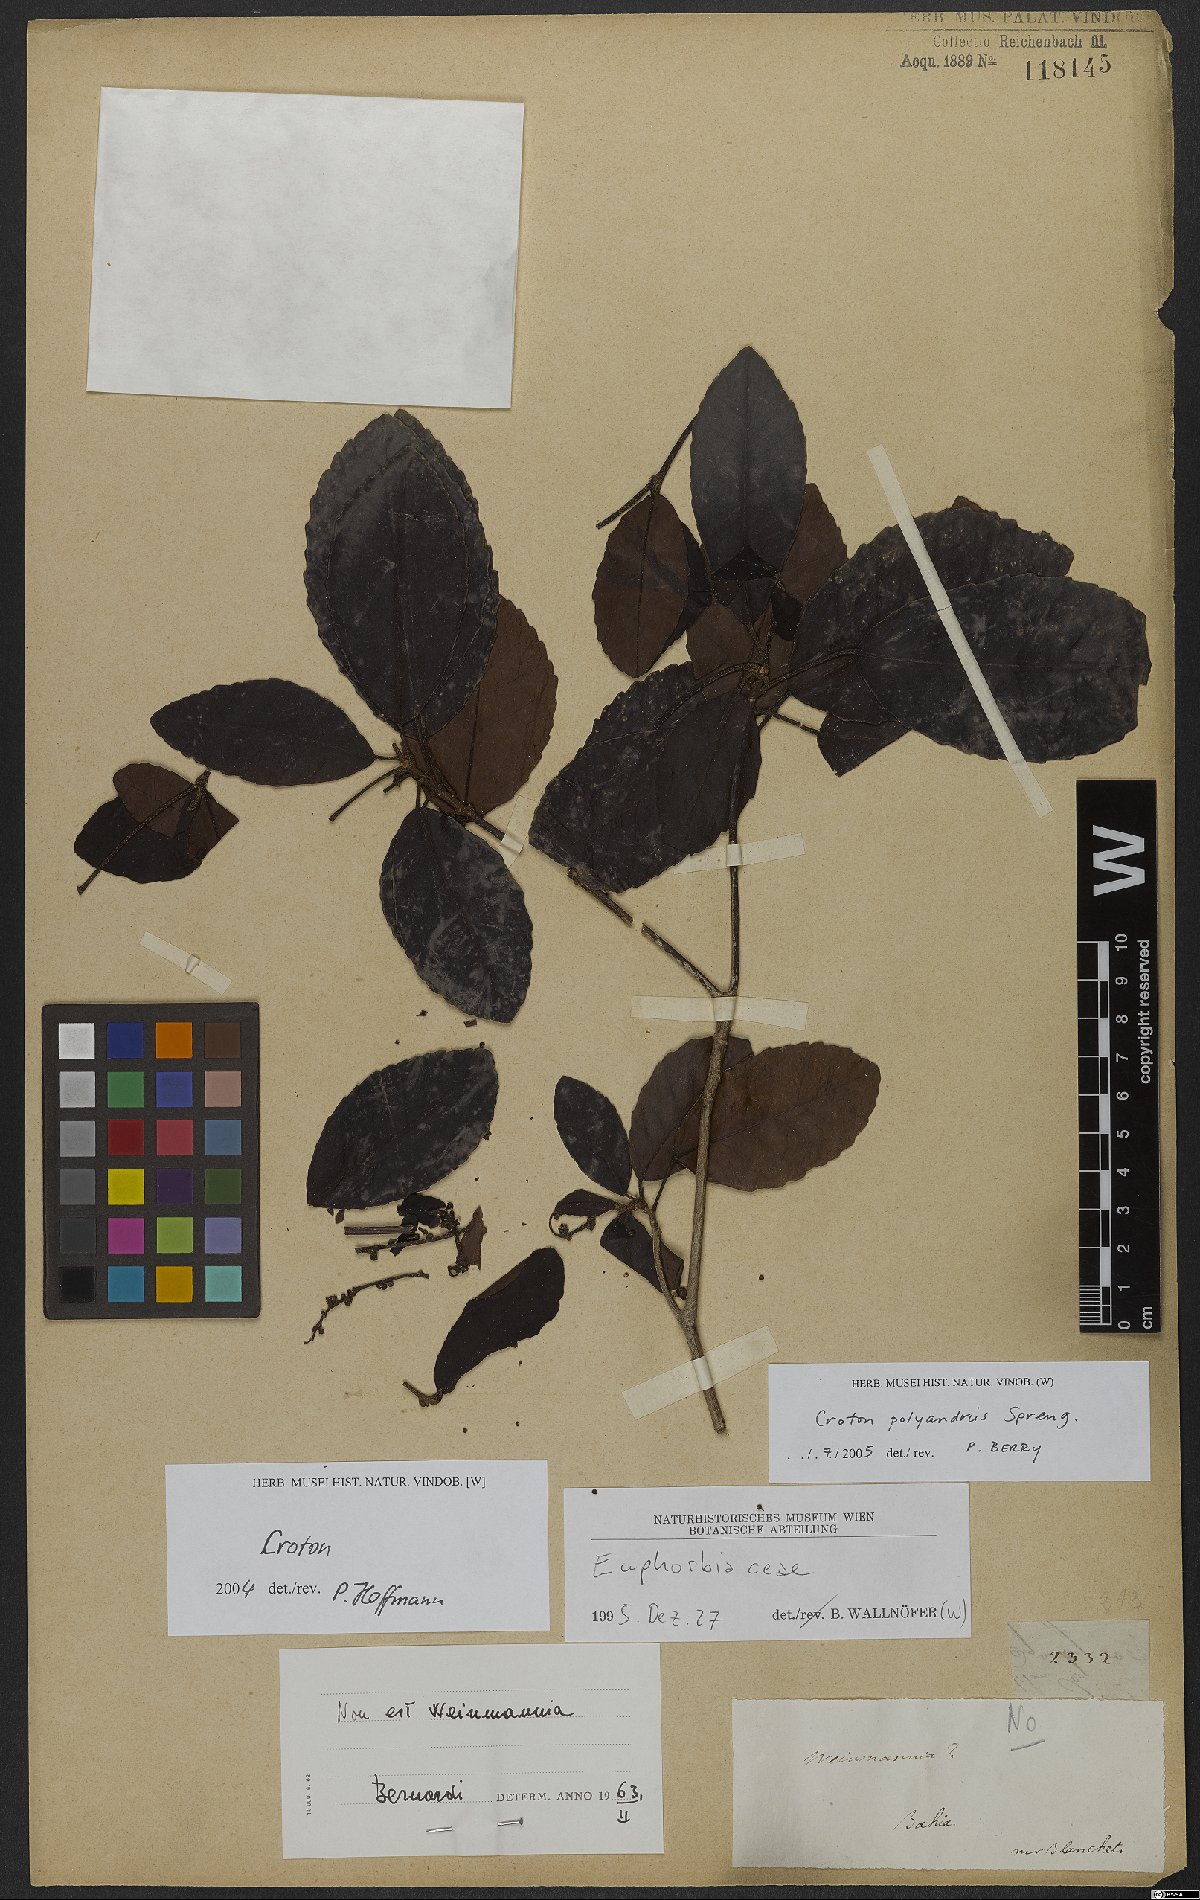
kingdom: Plantae
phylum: Tracheophyta
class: Magnoliopsida
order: Malpighiales
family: Euphorbiaceae
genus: Croton
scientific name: Croton polyandrus
